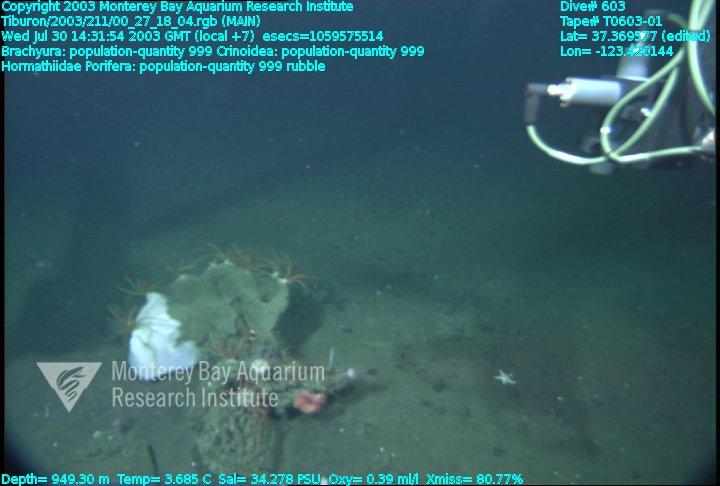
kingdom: Animalia
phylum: Porifera
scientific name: Porifera
